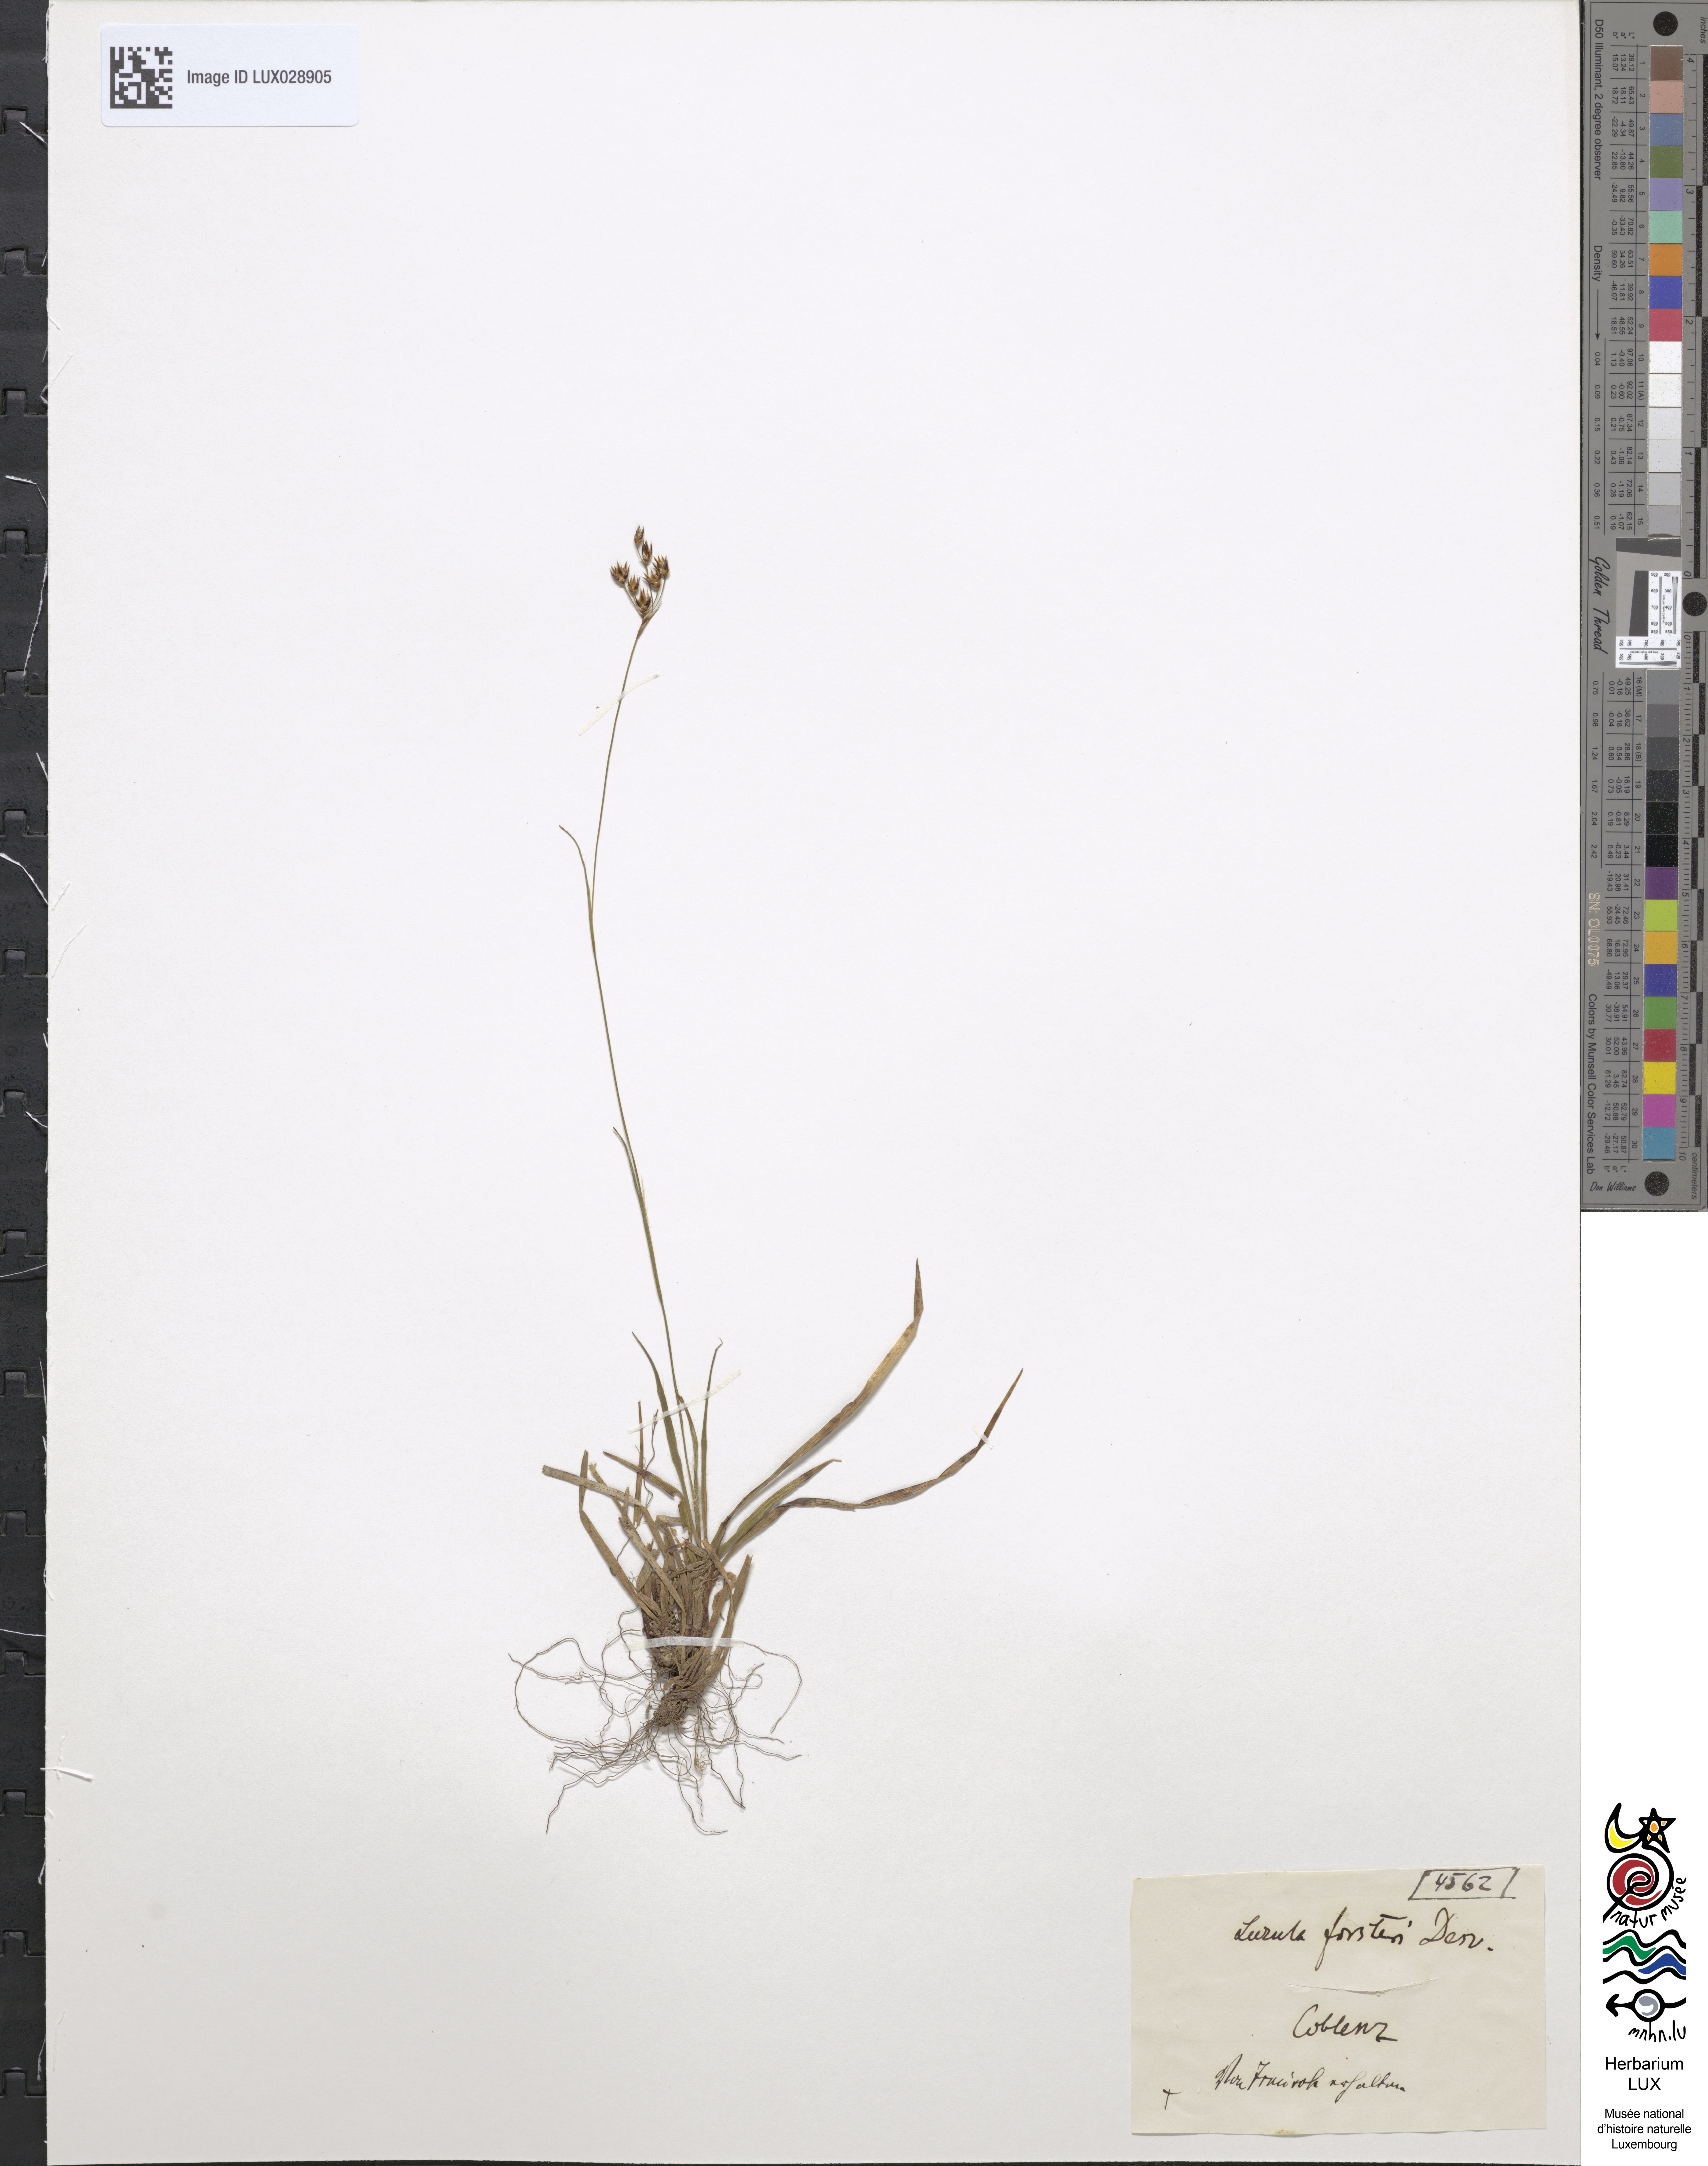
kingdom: Plantae
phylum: Tracheophyta
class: Liliopsida
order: Poales
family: Juncaceae
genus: Luzula
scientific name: Luzula forsteri
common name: Southern wood-rush
